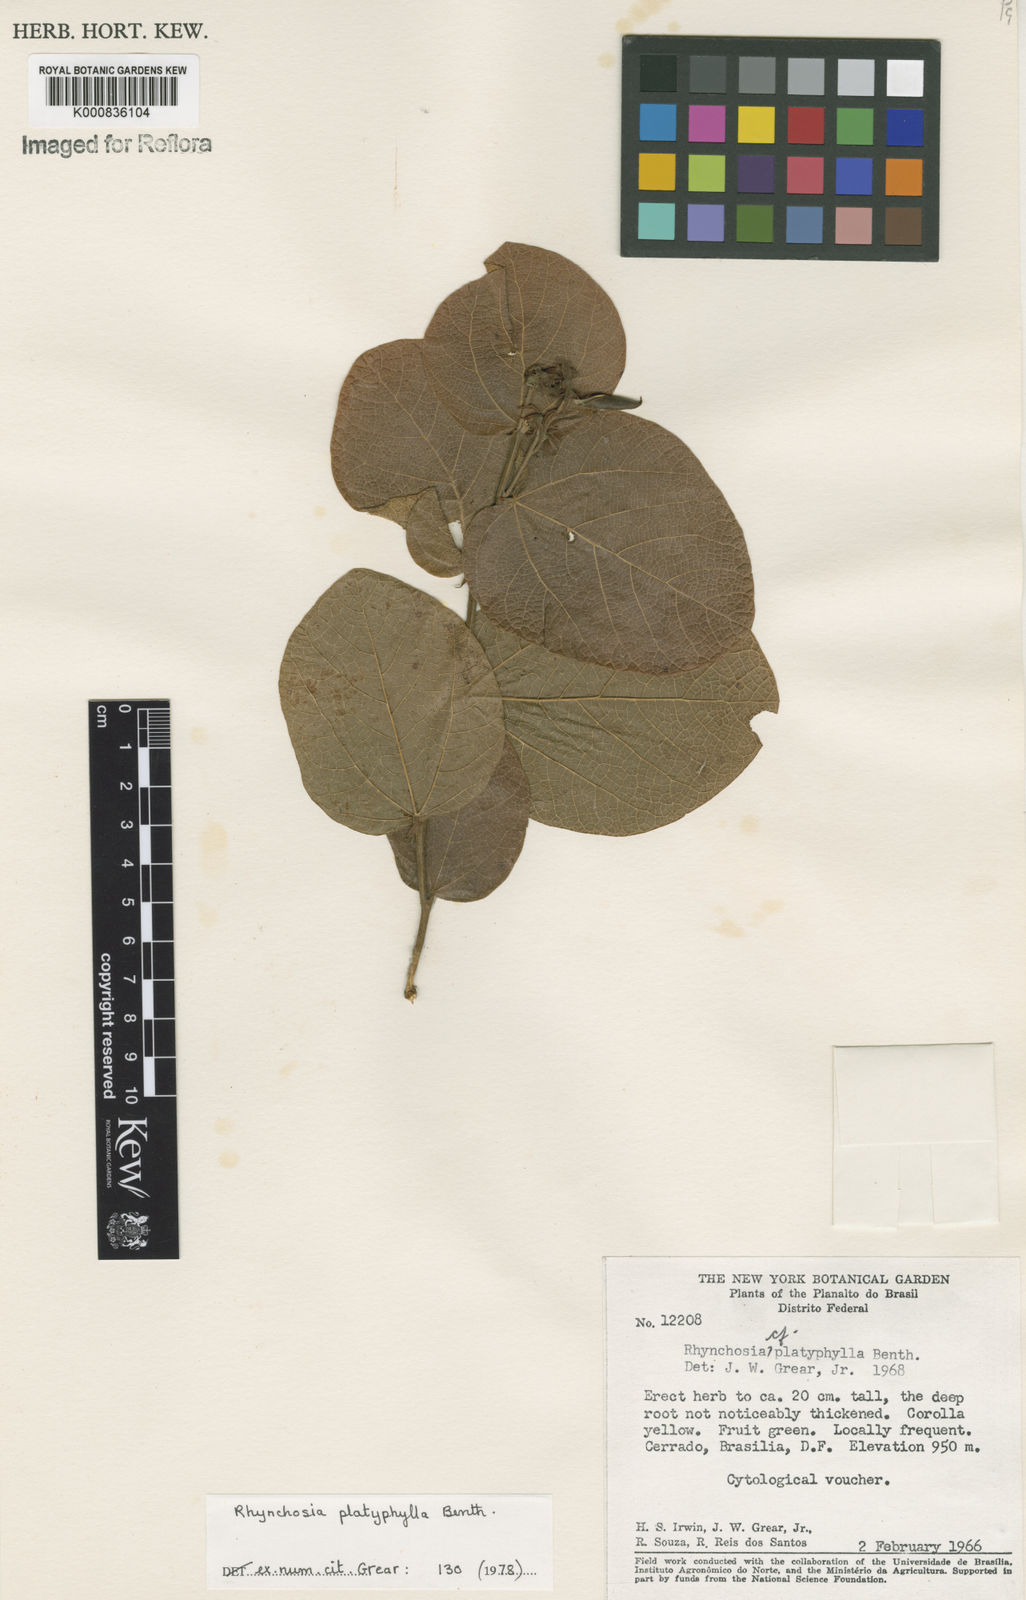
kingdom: Plantae
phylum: Tracheophyta
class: Magnoliopsida
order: Fabales
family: Fabaceae
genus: Rhynchosia
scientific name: Rhynchosia platyphylla
